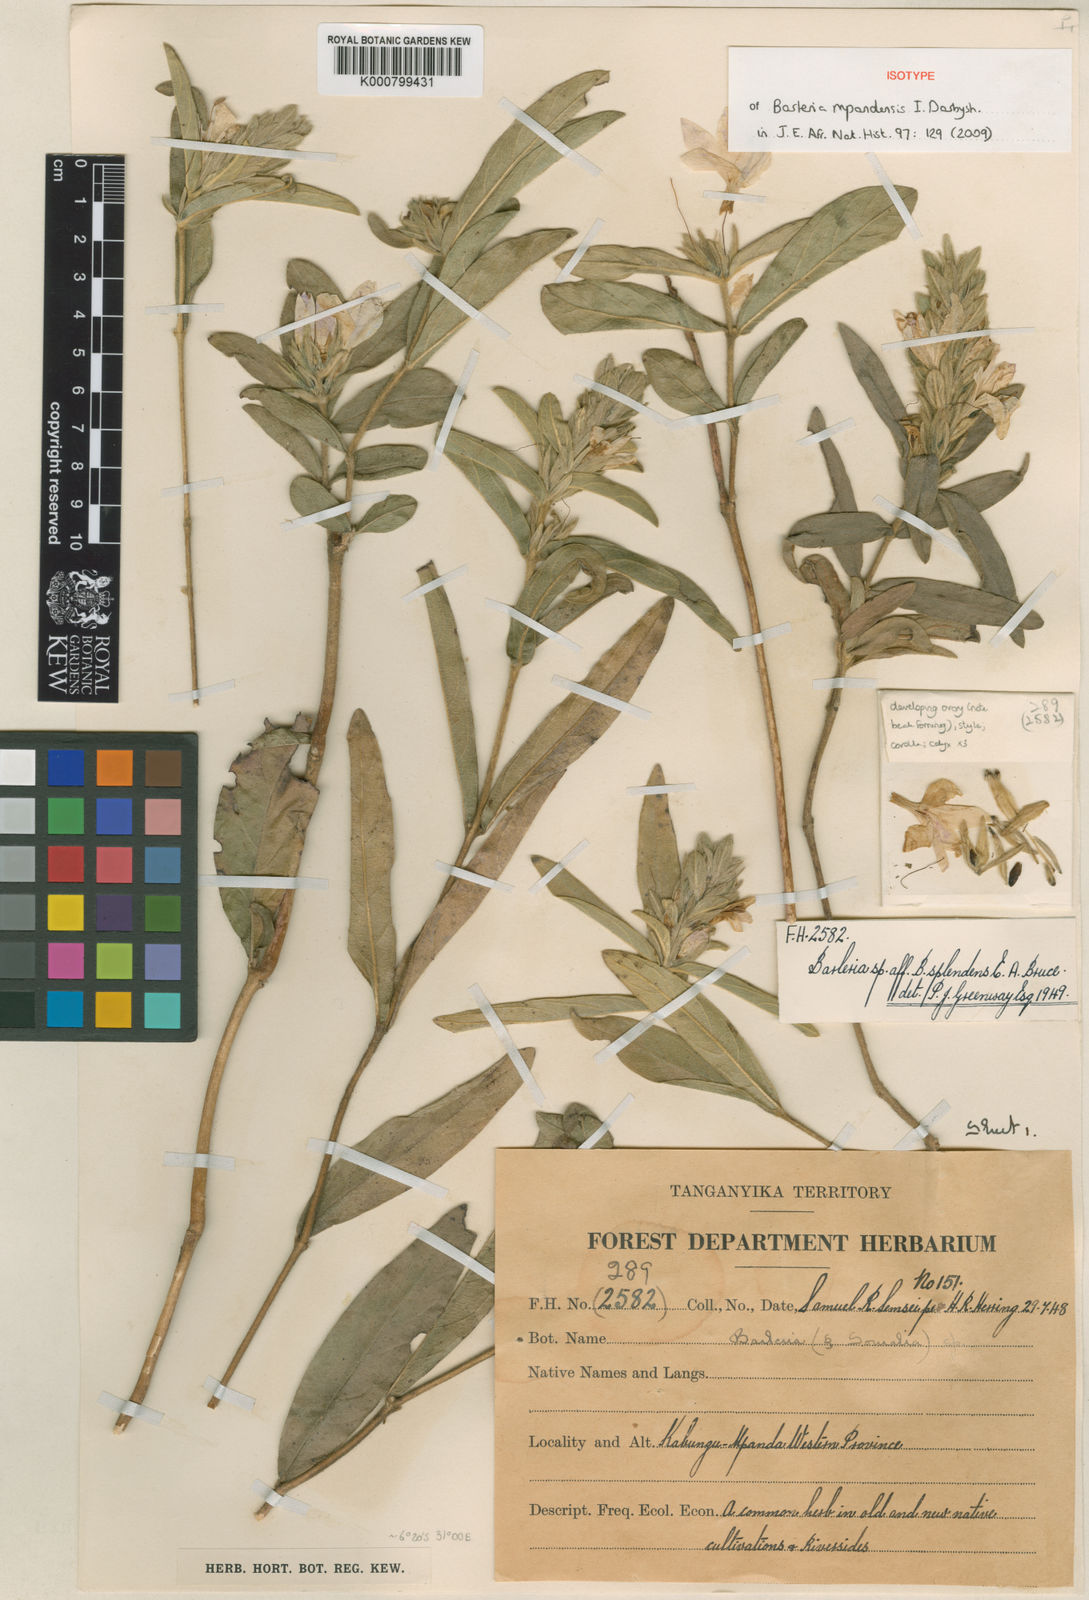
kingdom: Plantae
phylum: Tracheophyta
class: Magnoliopsida
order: Lamiales
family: Acanthaceae
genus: Barleria
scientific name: Barleria mpandensis
